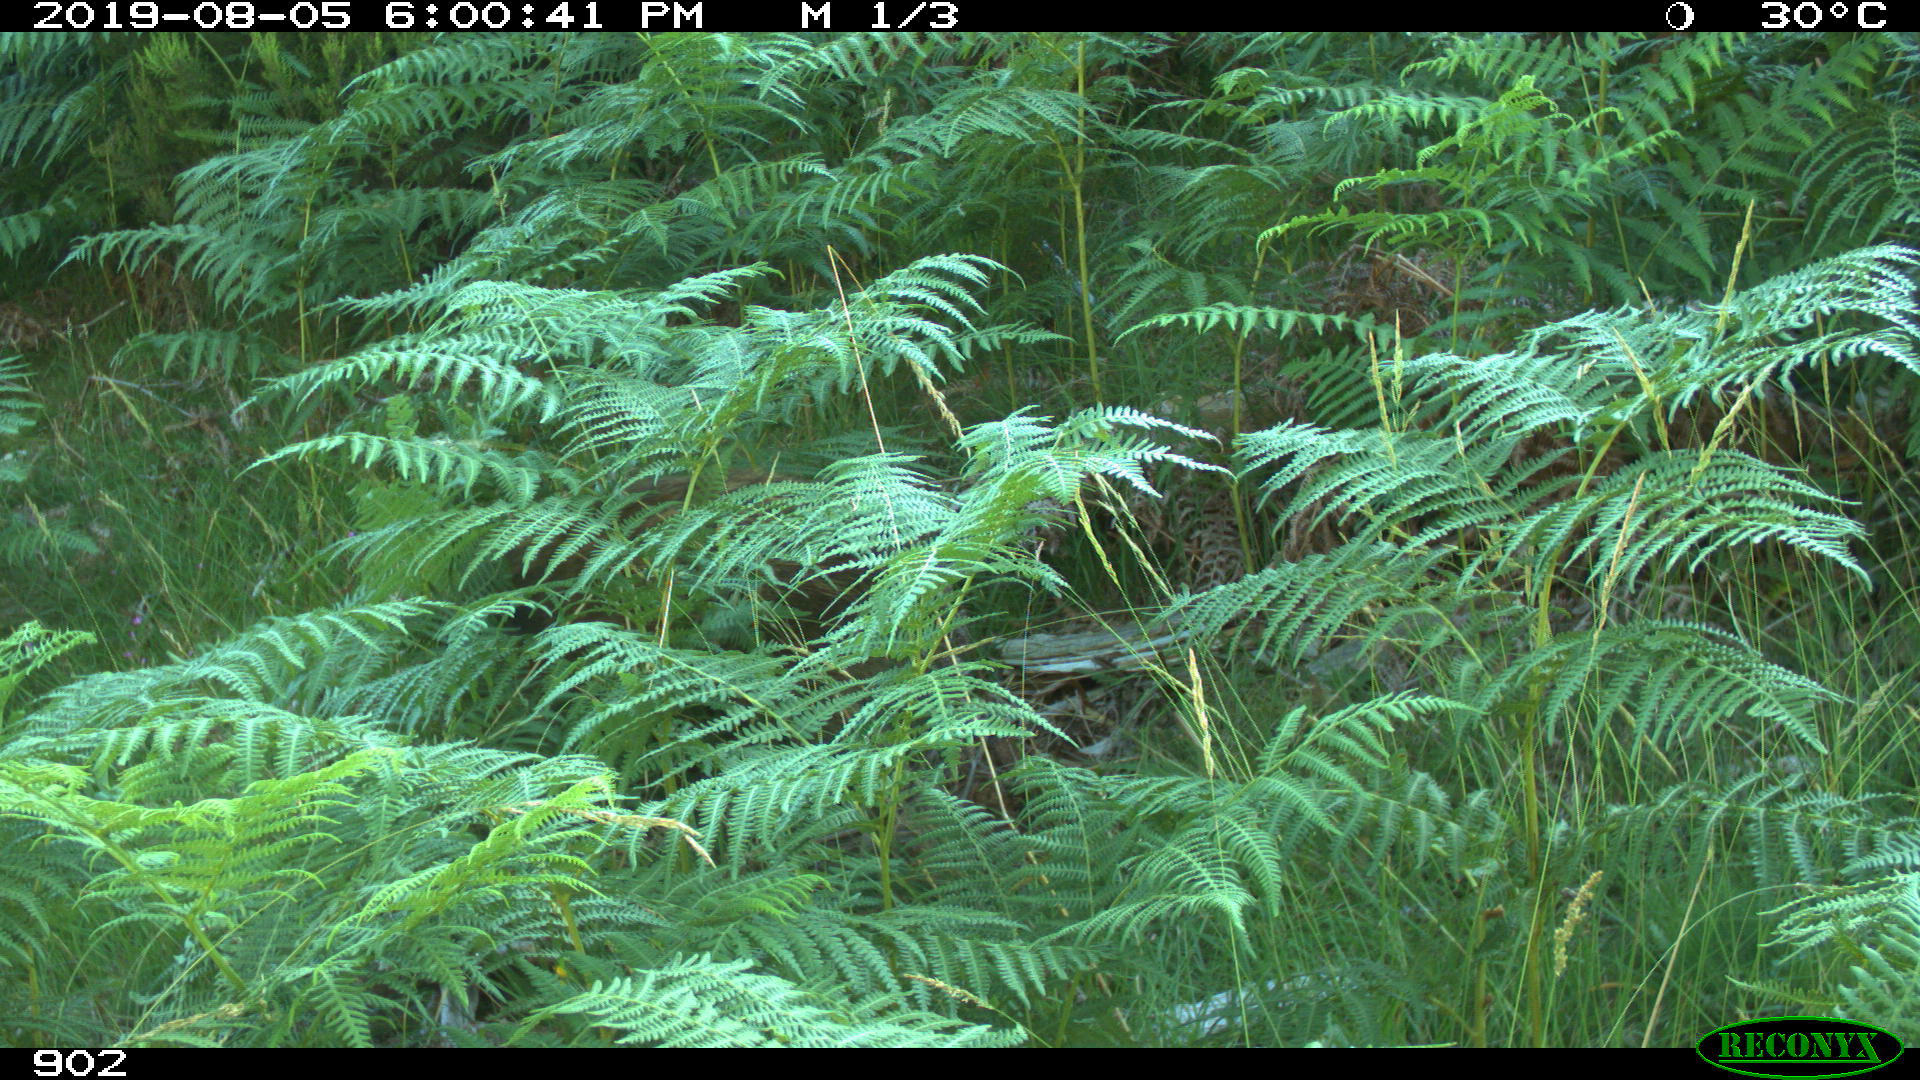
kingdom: Animalia
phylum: Chordata
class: Mammalia
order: Artiodactyla
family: Suidae
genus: Sus
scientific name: Sus scrofa
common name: Wild boar
